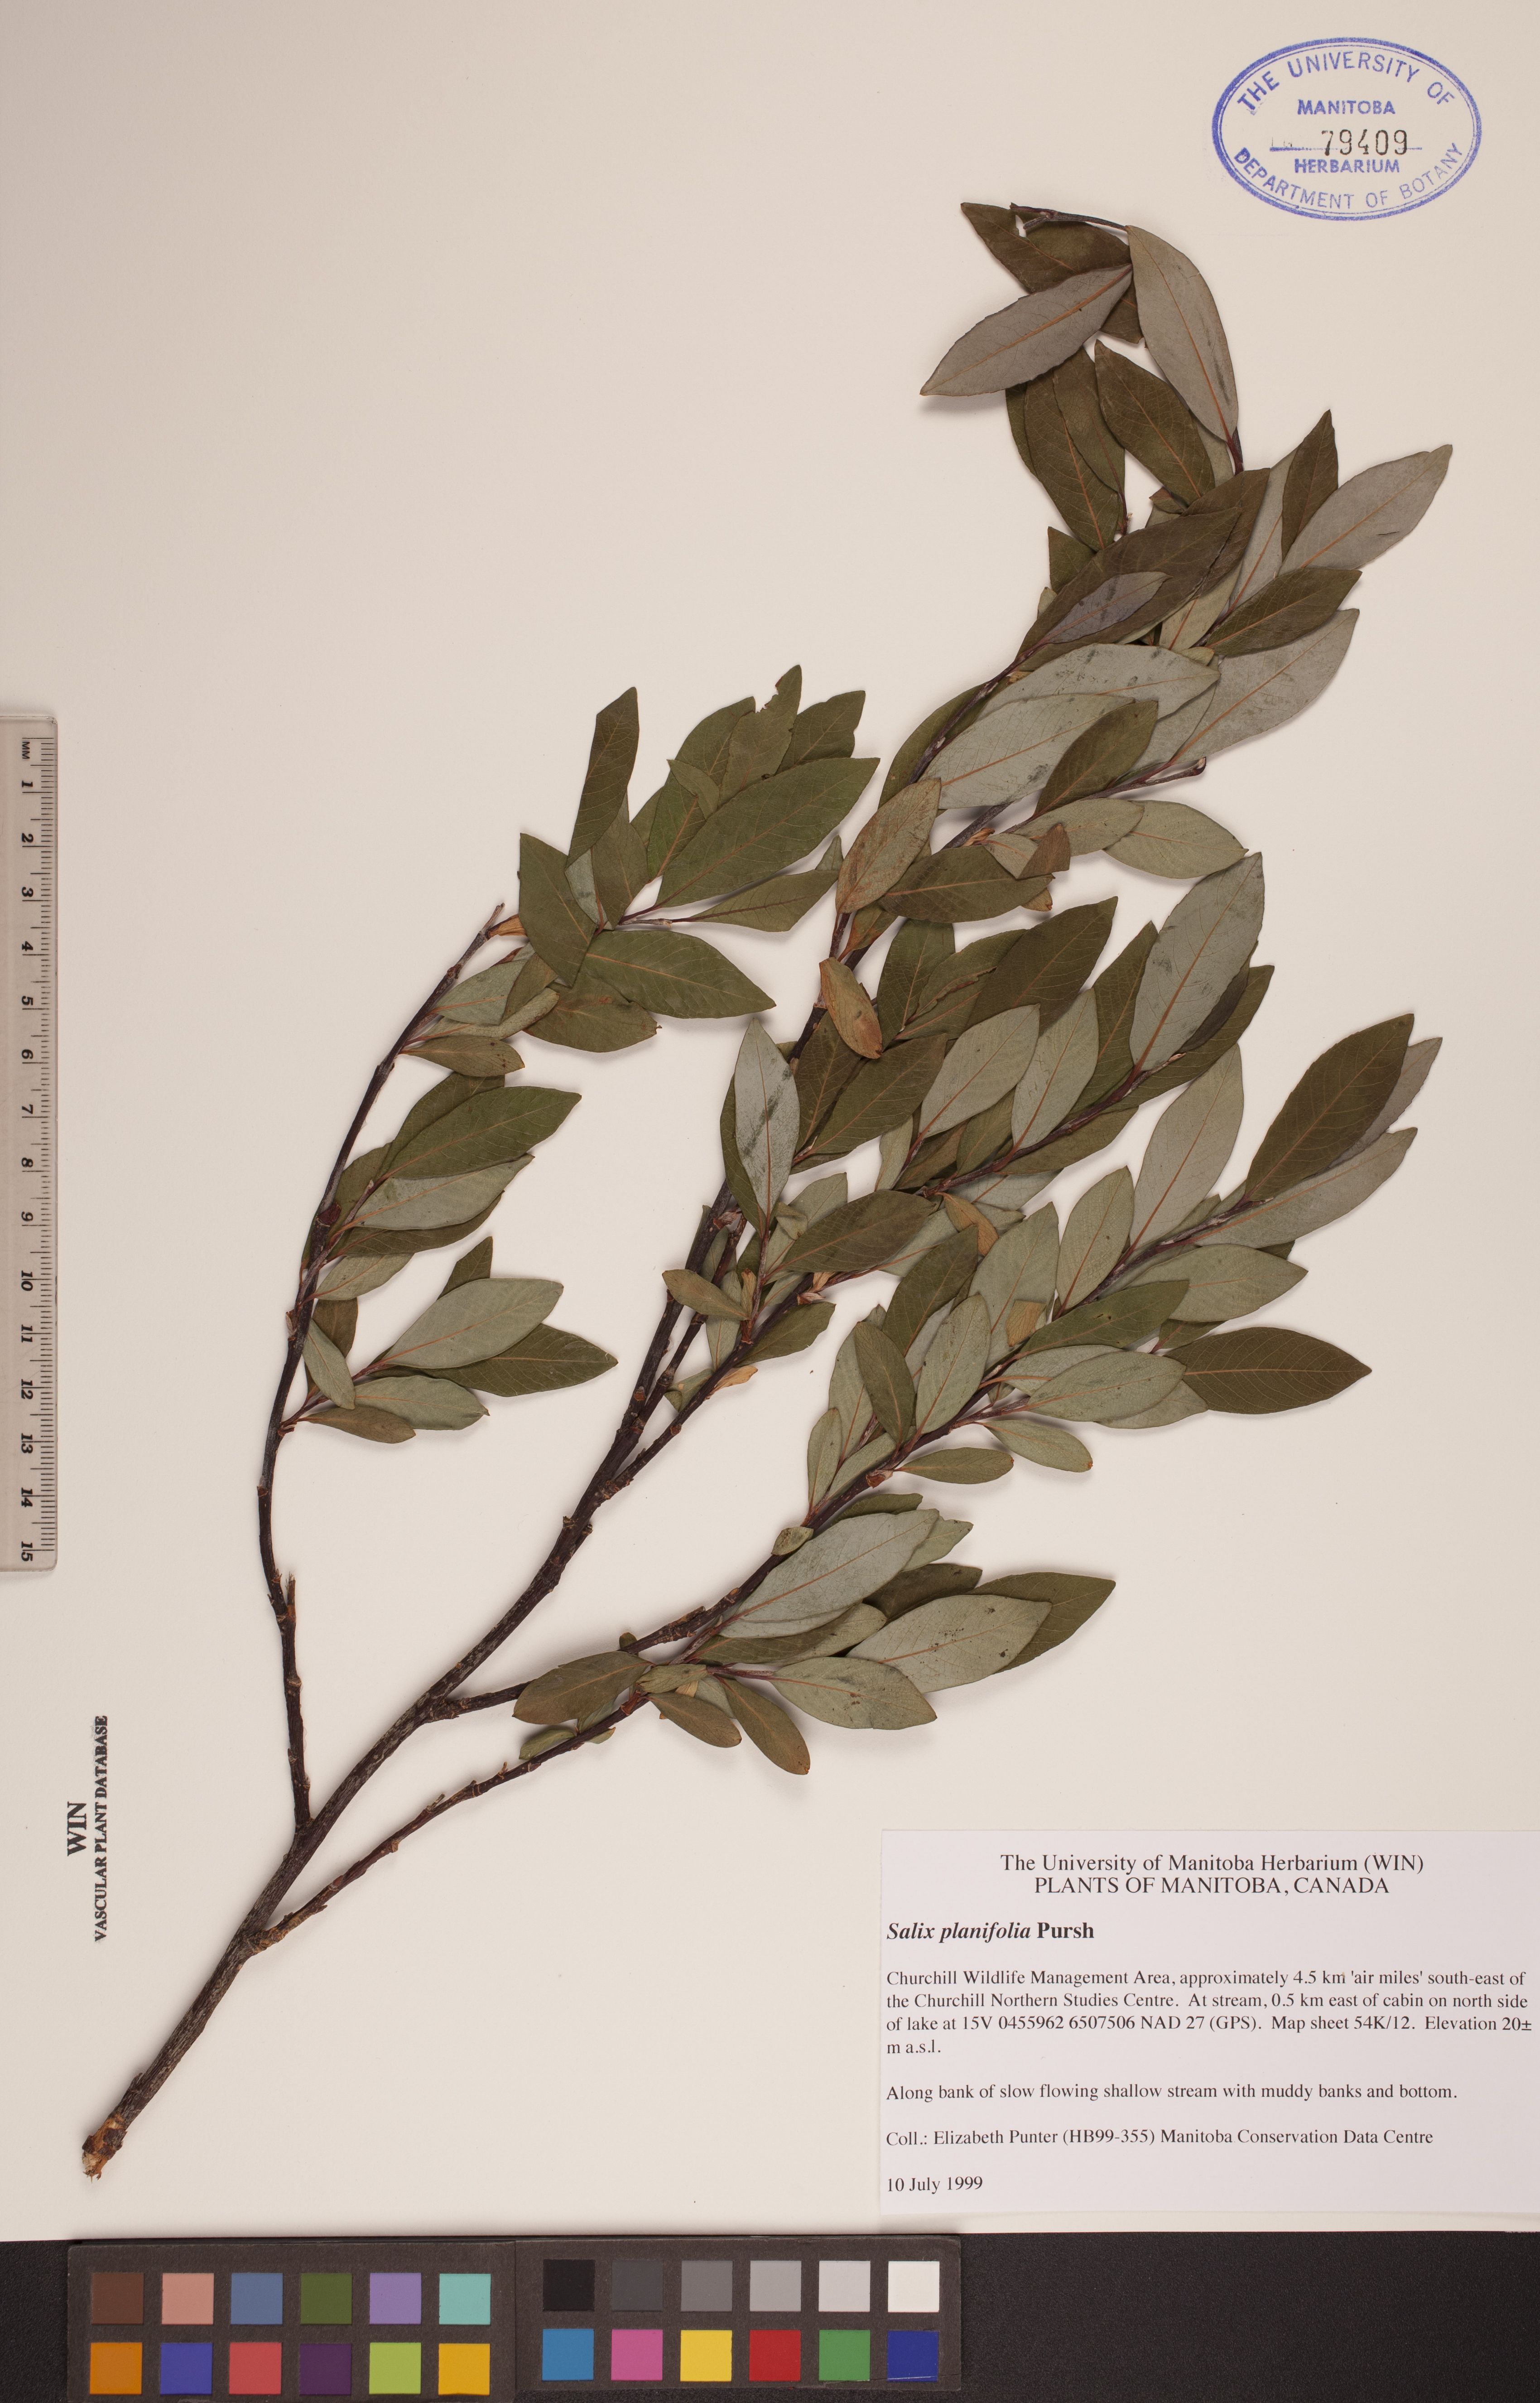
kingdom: Plantae
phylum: Tracheophyta
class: Magnoliopsida
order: Malpighiales
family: Salicaceae
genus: Salix
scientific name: Salix planifolia
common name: Mountain willow
